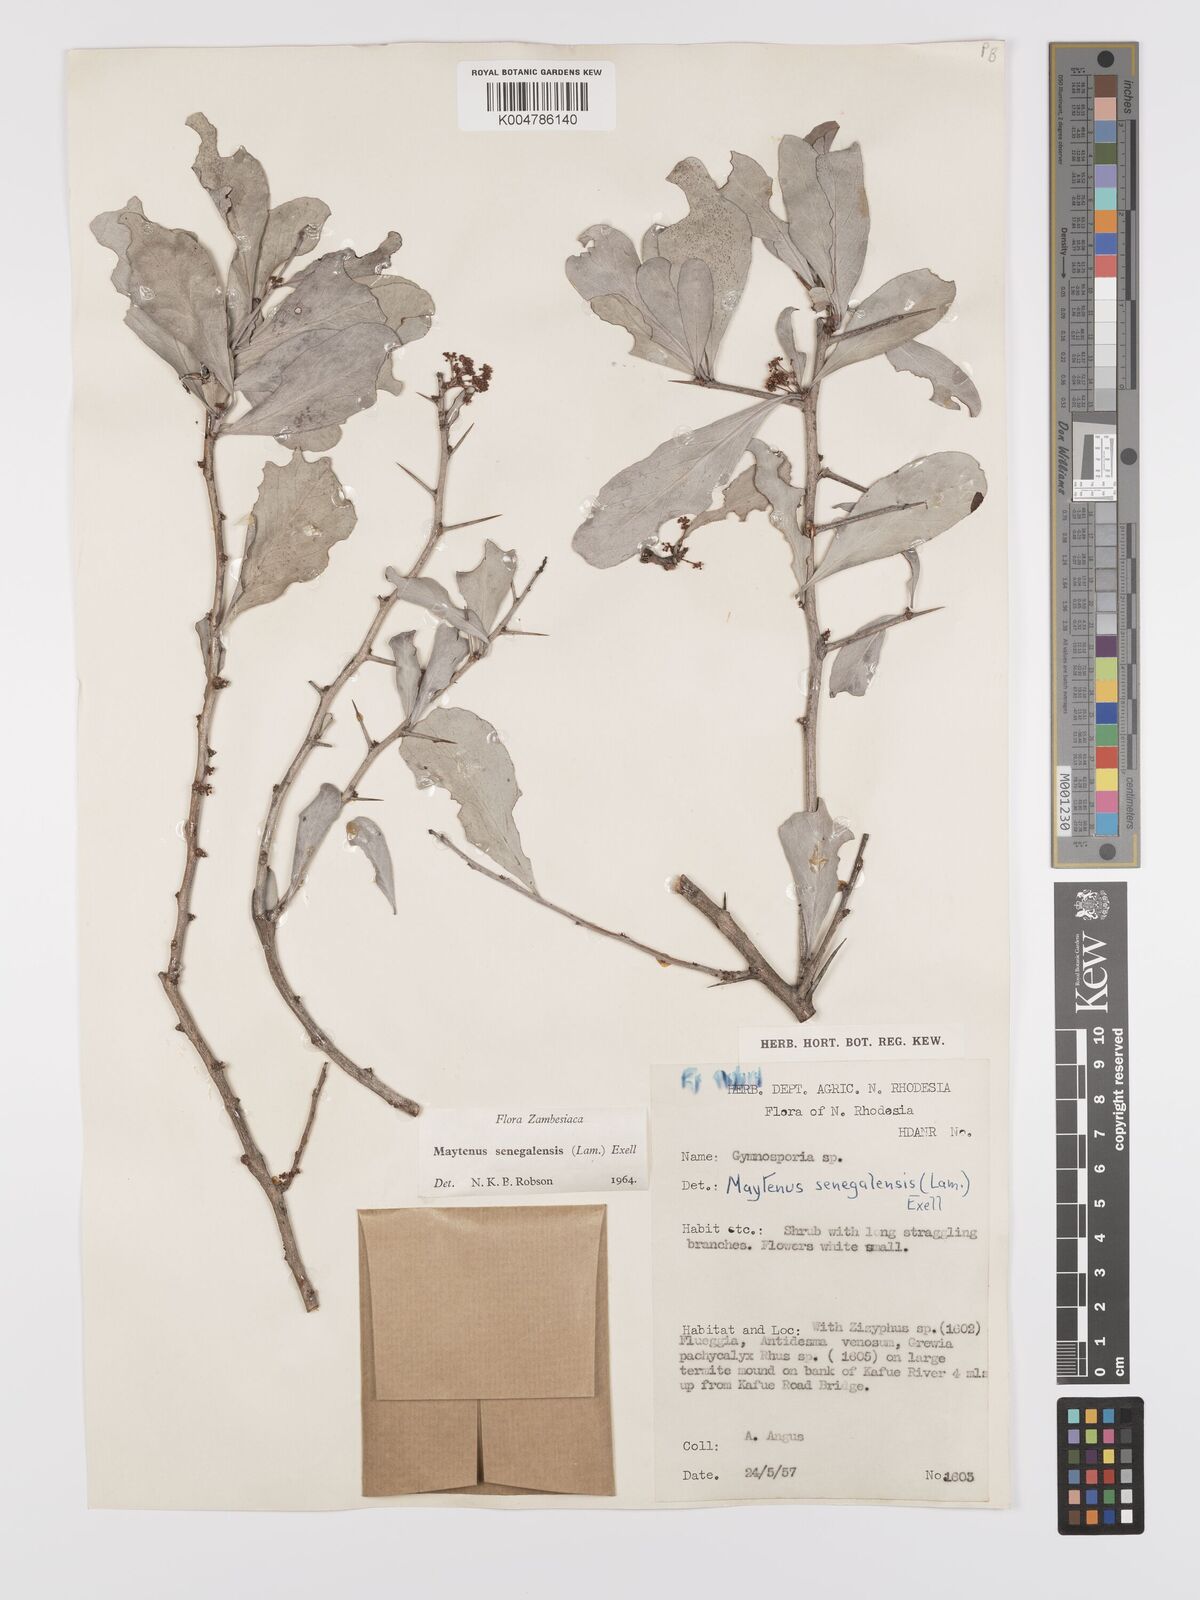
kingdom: Plantae
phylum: Tracheophyta
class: Magnoliopsida
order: Celastrales
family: Celastraceae
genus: Gymnosporia
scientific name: Gymnosporia senegalensis
